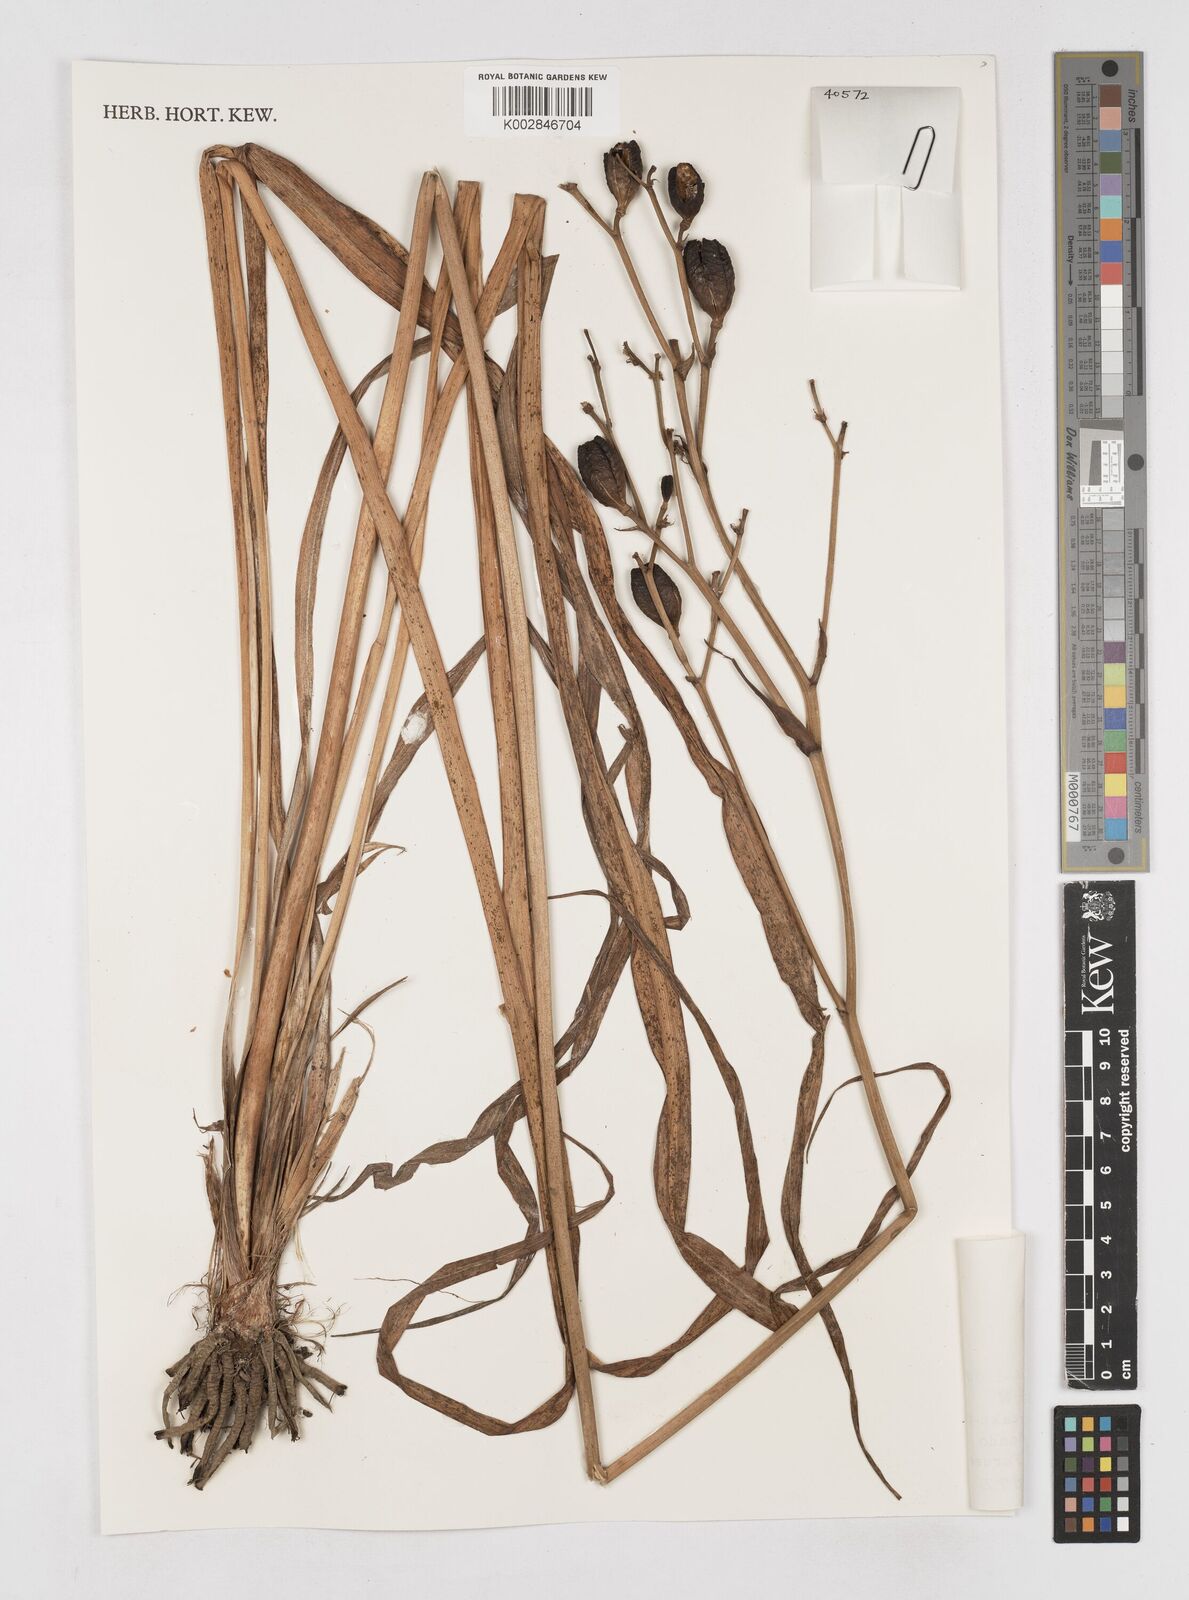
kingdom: Plantae
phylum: Tracheophyta
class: Liliopsida
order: Asparagales
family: Asphodelaceae
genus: Hemerocallis
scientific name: Hemerocallis citrina
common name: Citron day-lily
